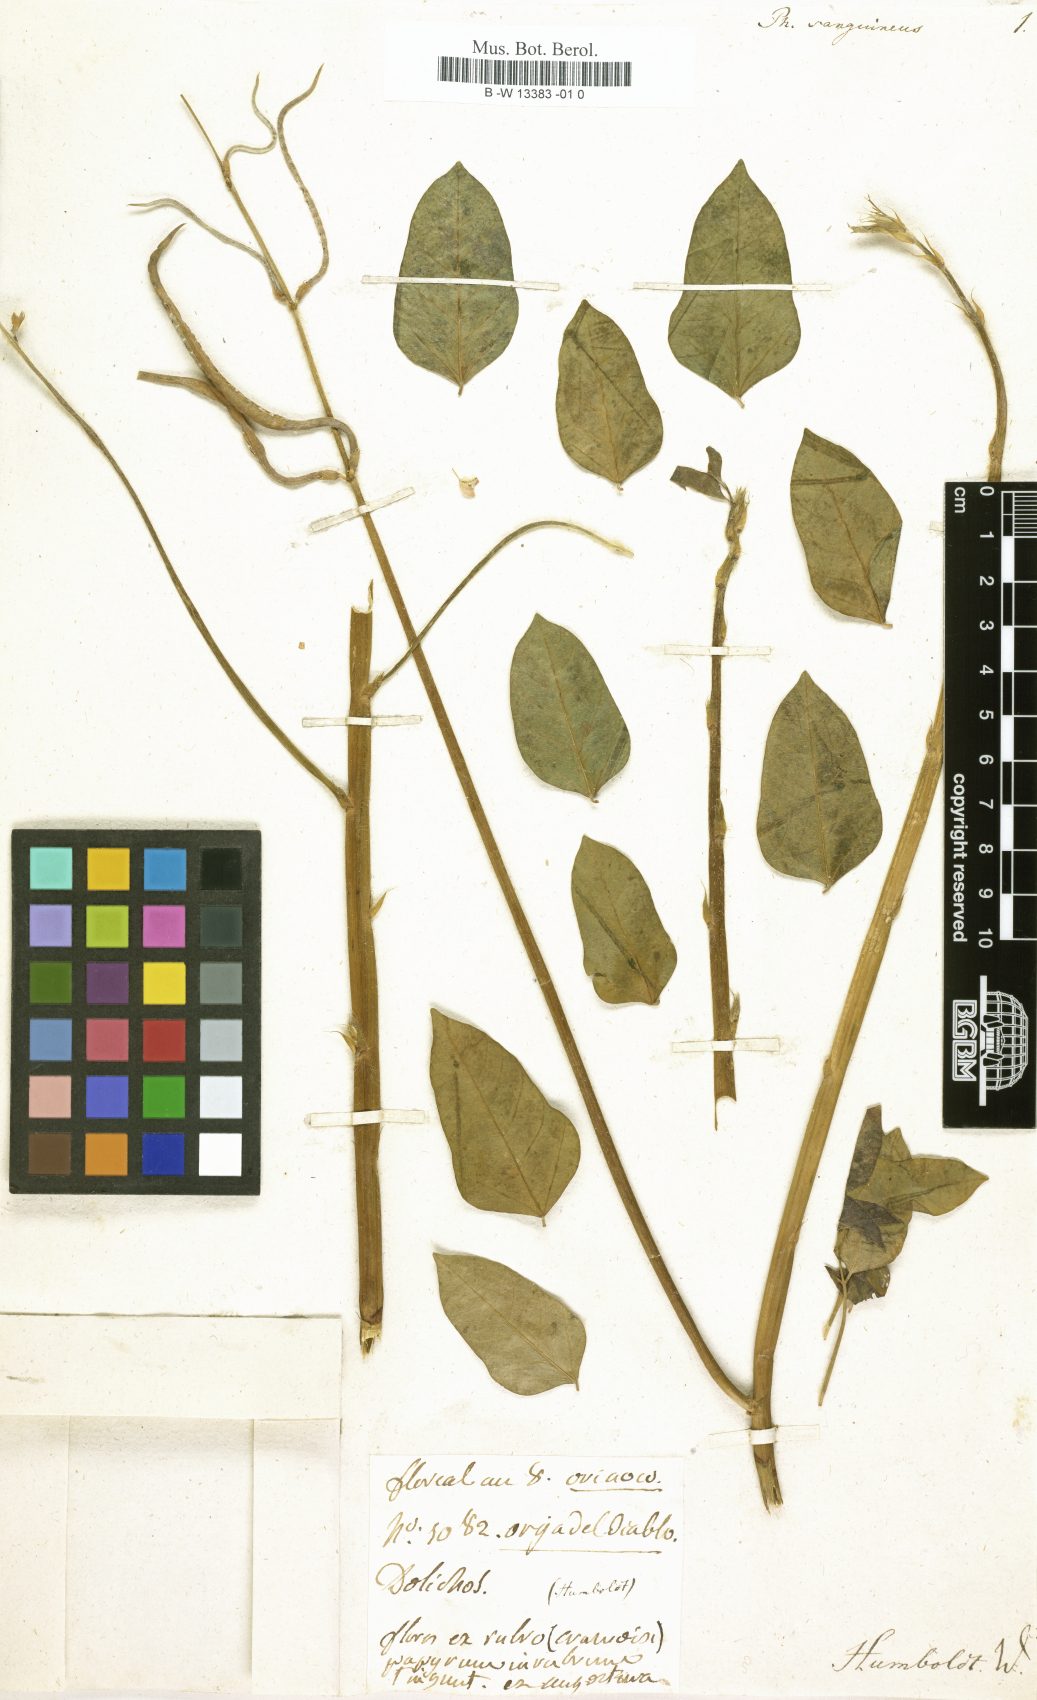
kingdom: Plantae
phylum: Tracheophyta
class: Magnoliopsida
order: Fabales
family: Fabaceae
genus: Phaseolus
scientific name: Phaseolus
